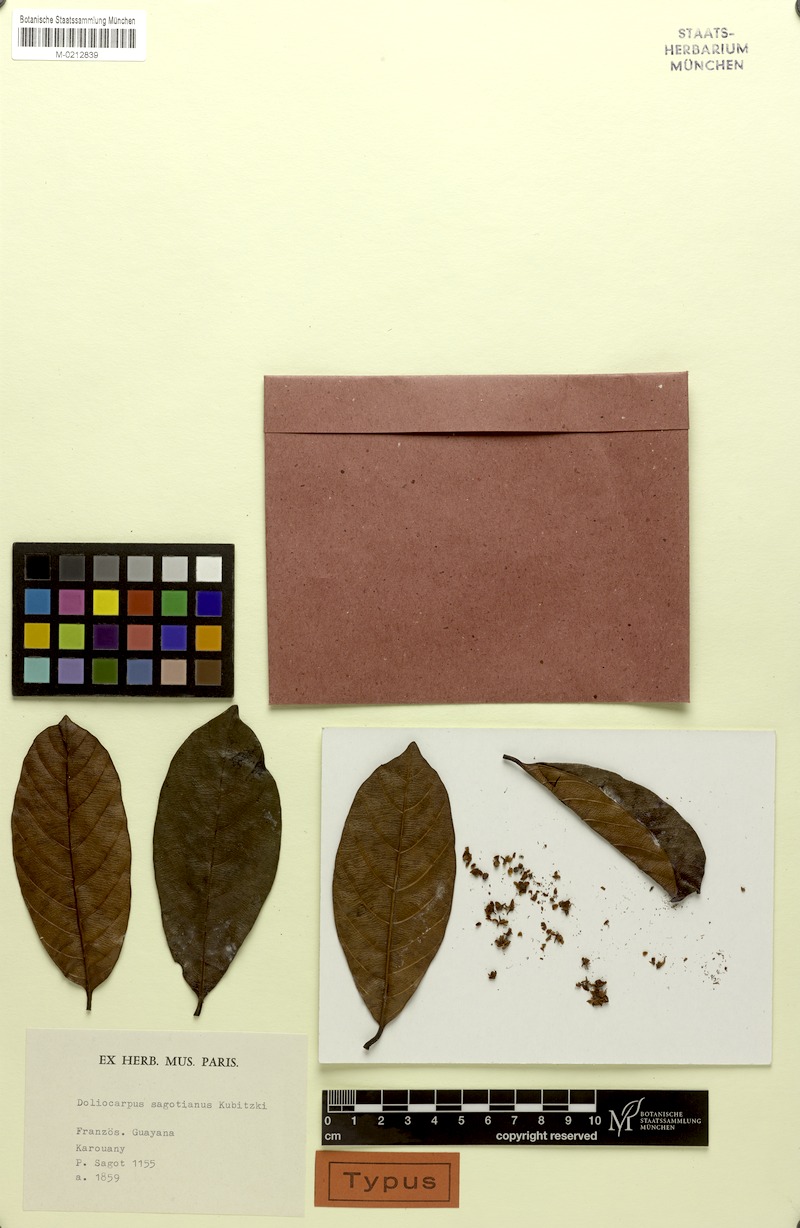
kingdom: Plantae
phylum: Tracheophyta
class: Magnoliopsida
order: Dilleniales
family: Dilleniaceae
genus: Doliocarpus
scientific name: Doliocarpus sagotianus
